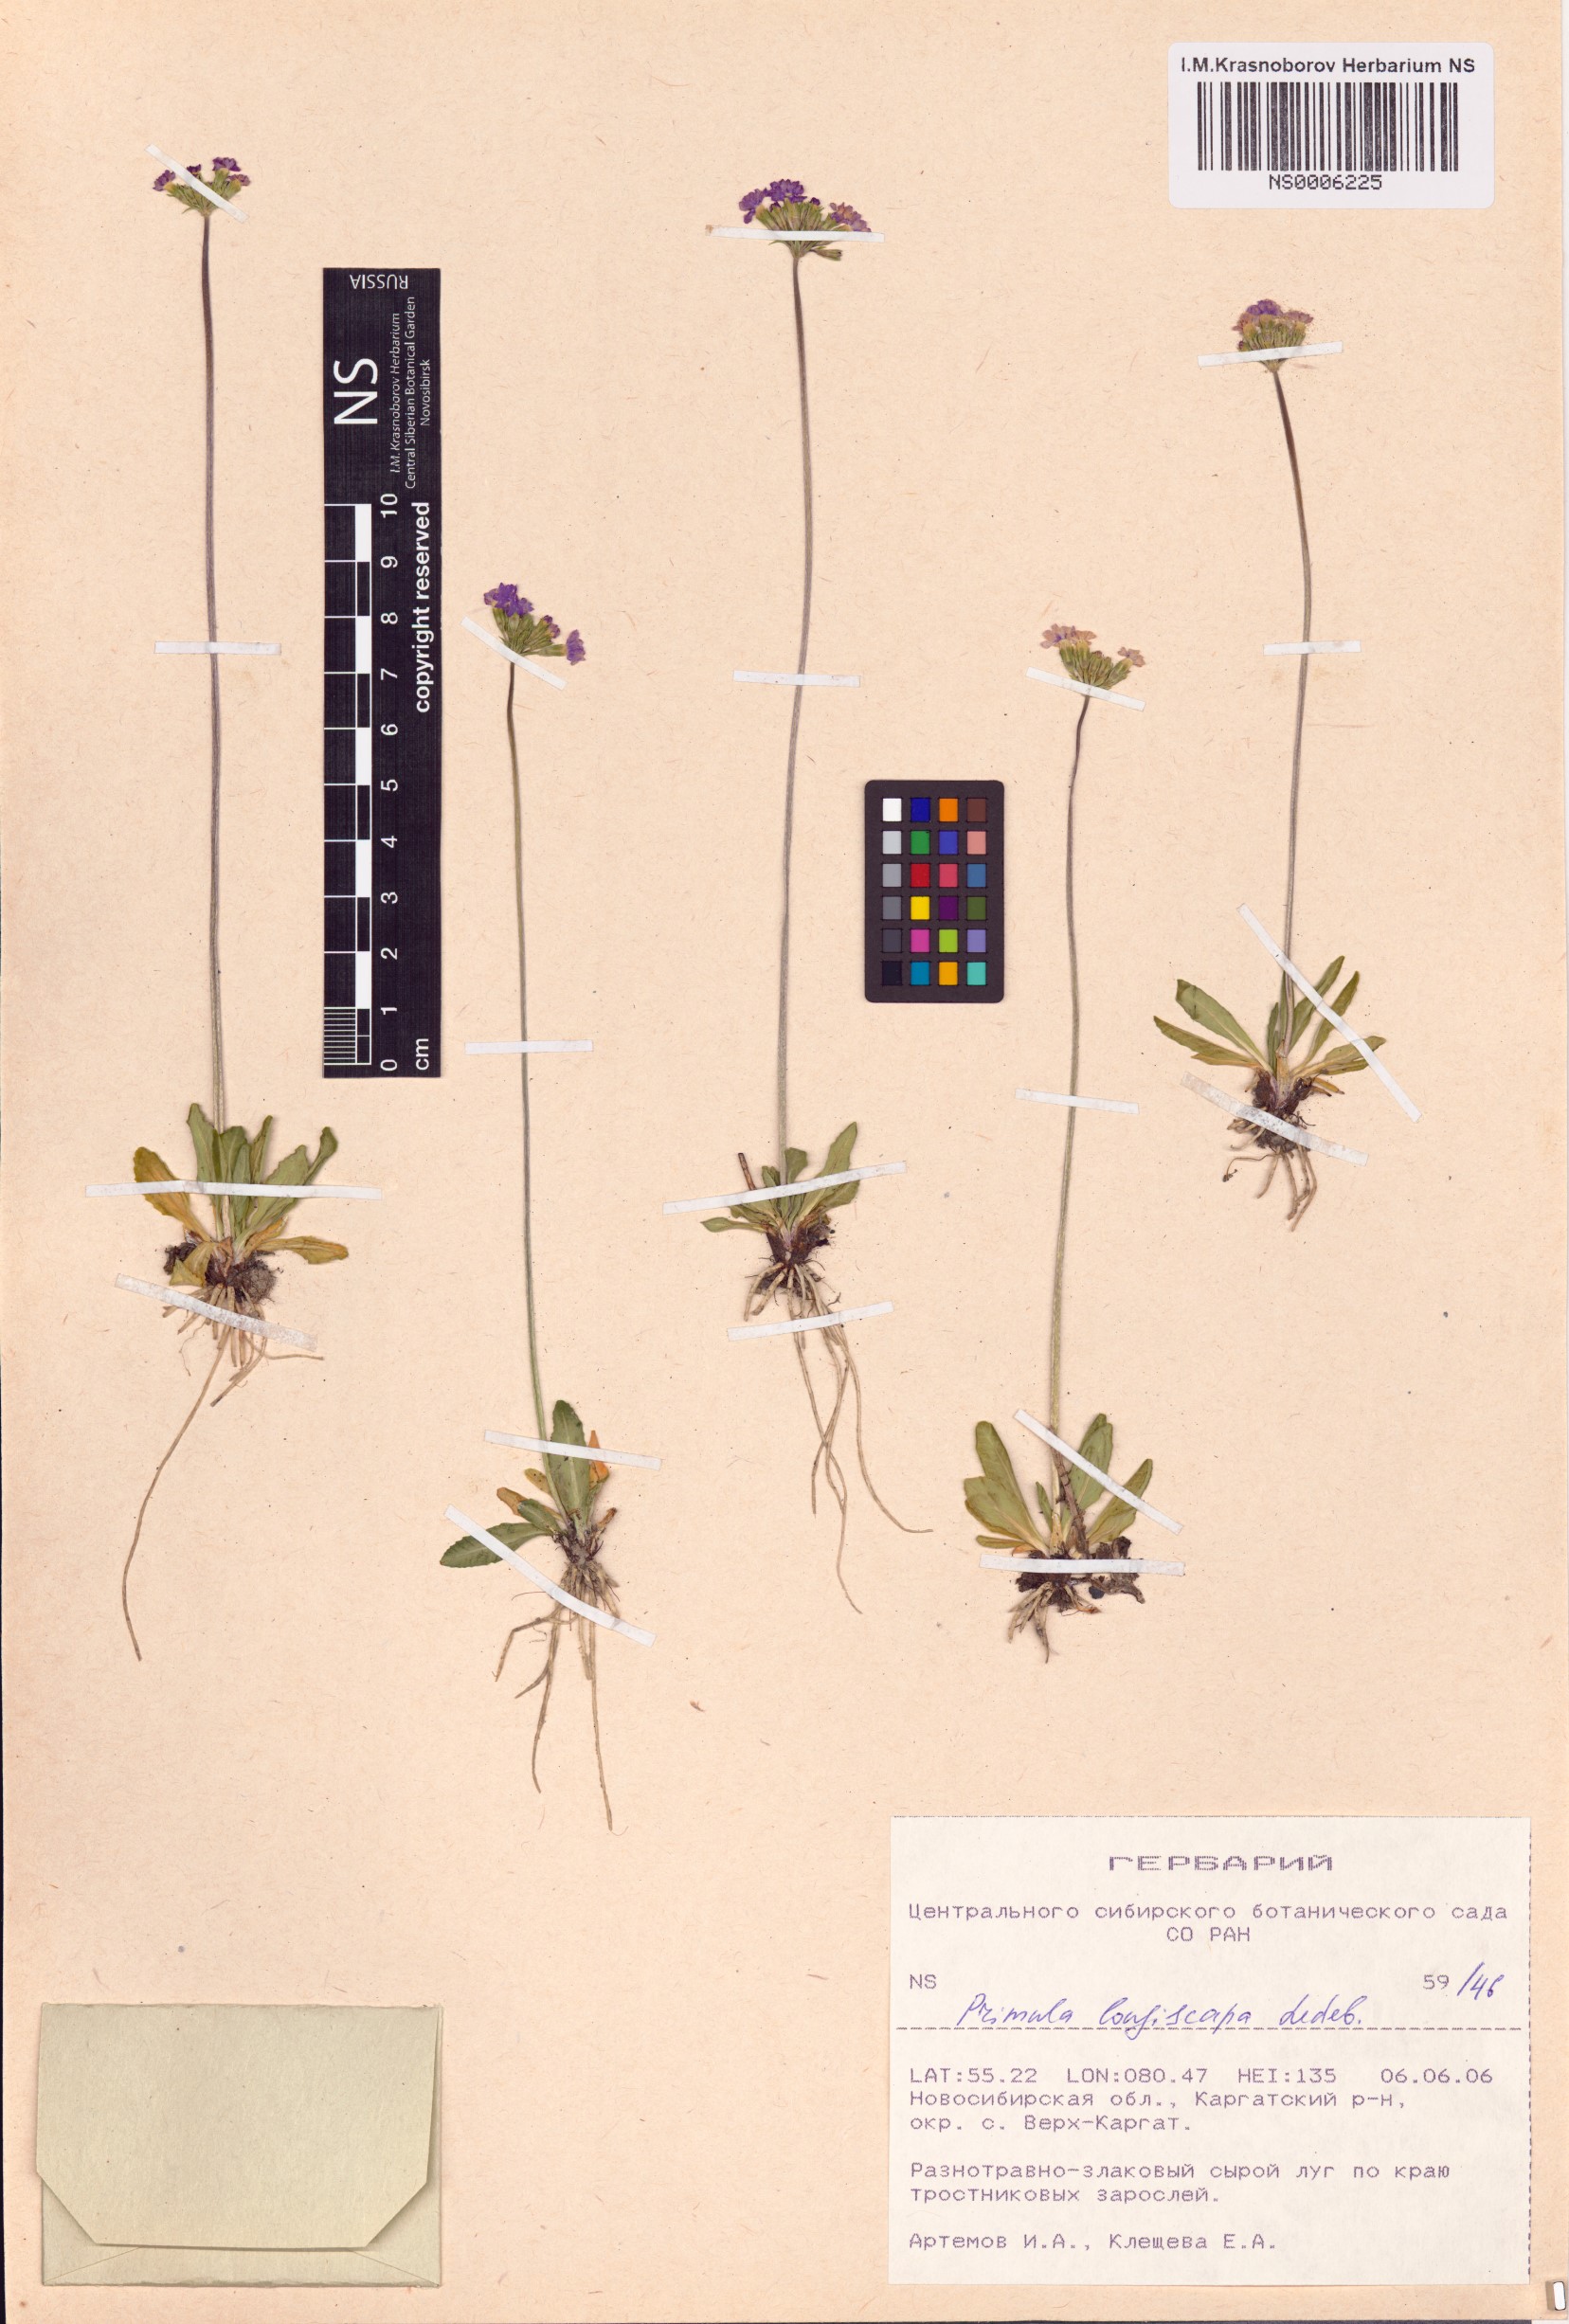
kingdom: Plantae
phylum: Tracheophyta
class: Magnoliopsida
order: Ericales
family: Primulaceae
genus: Primula
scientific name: Primula longiscapa
